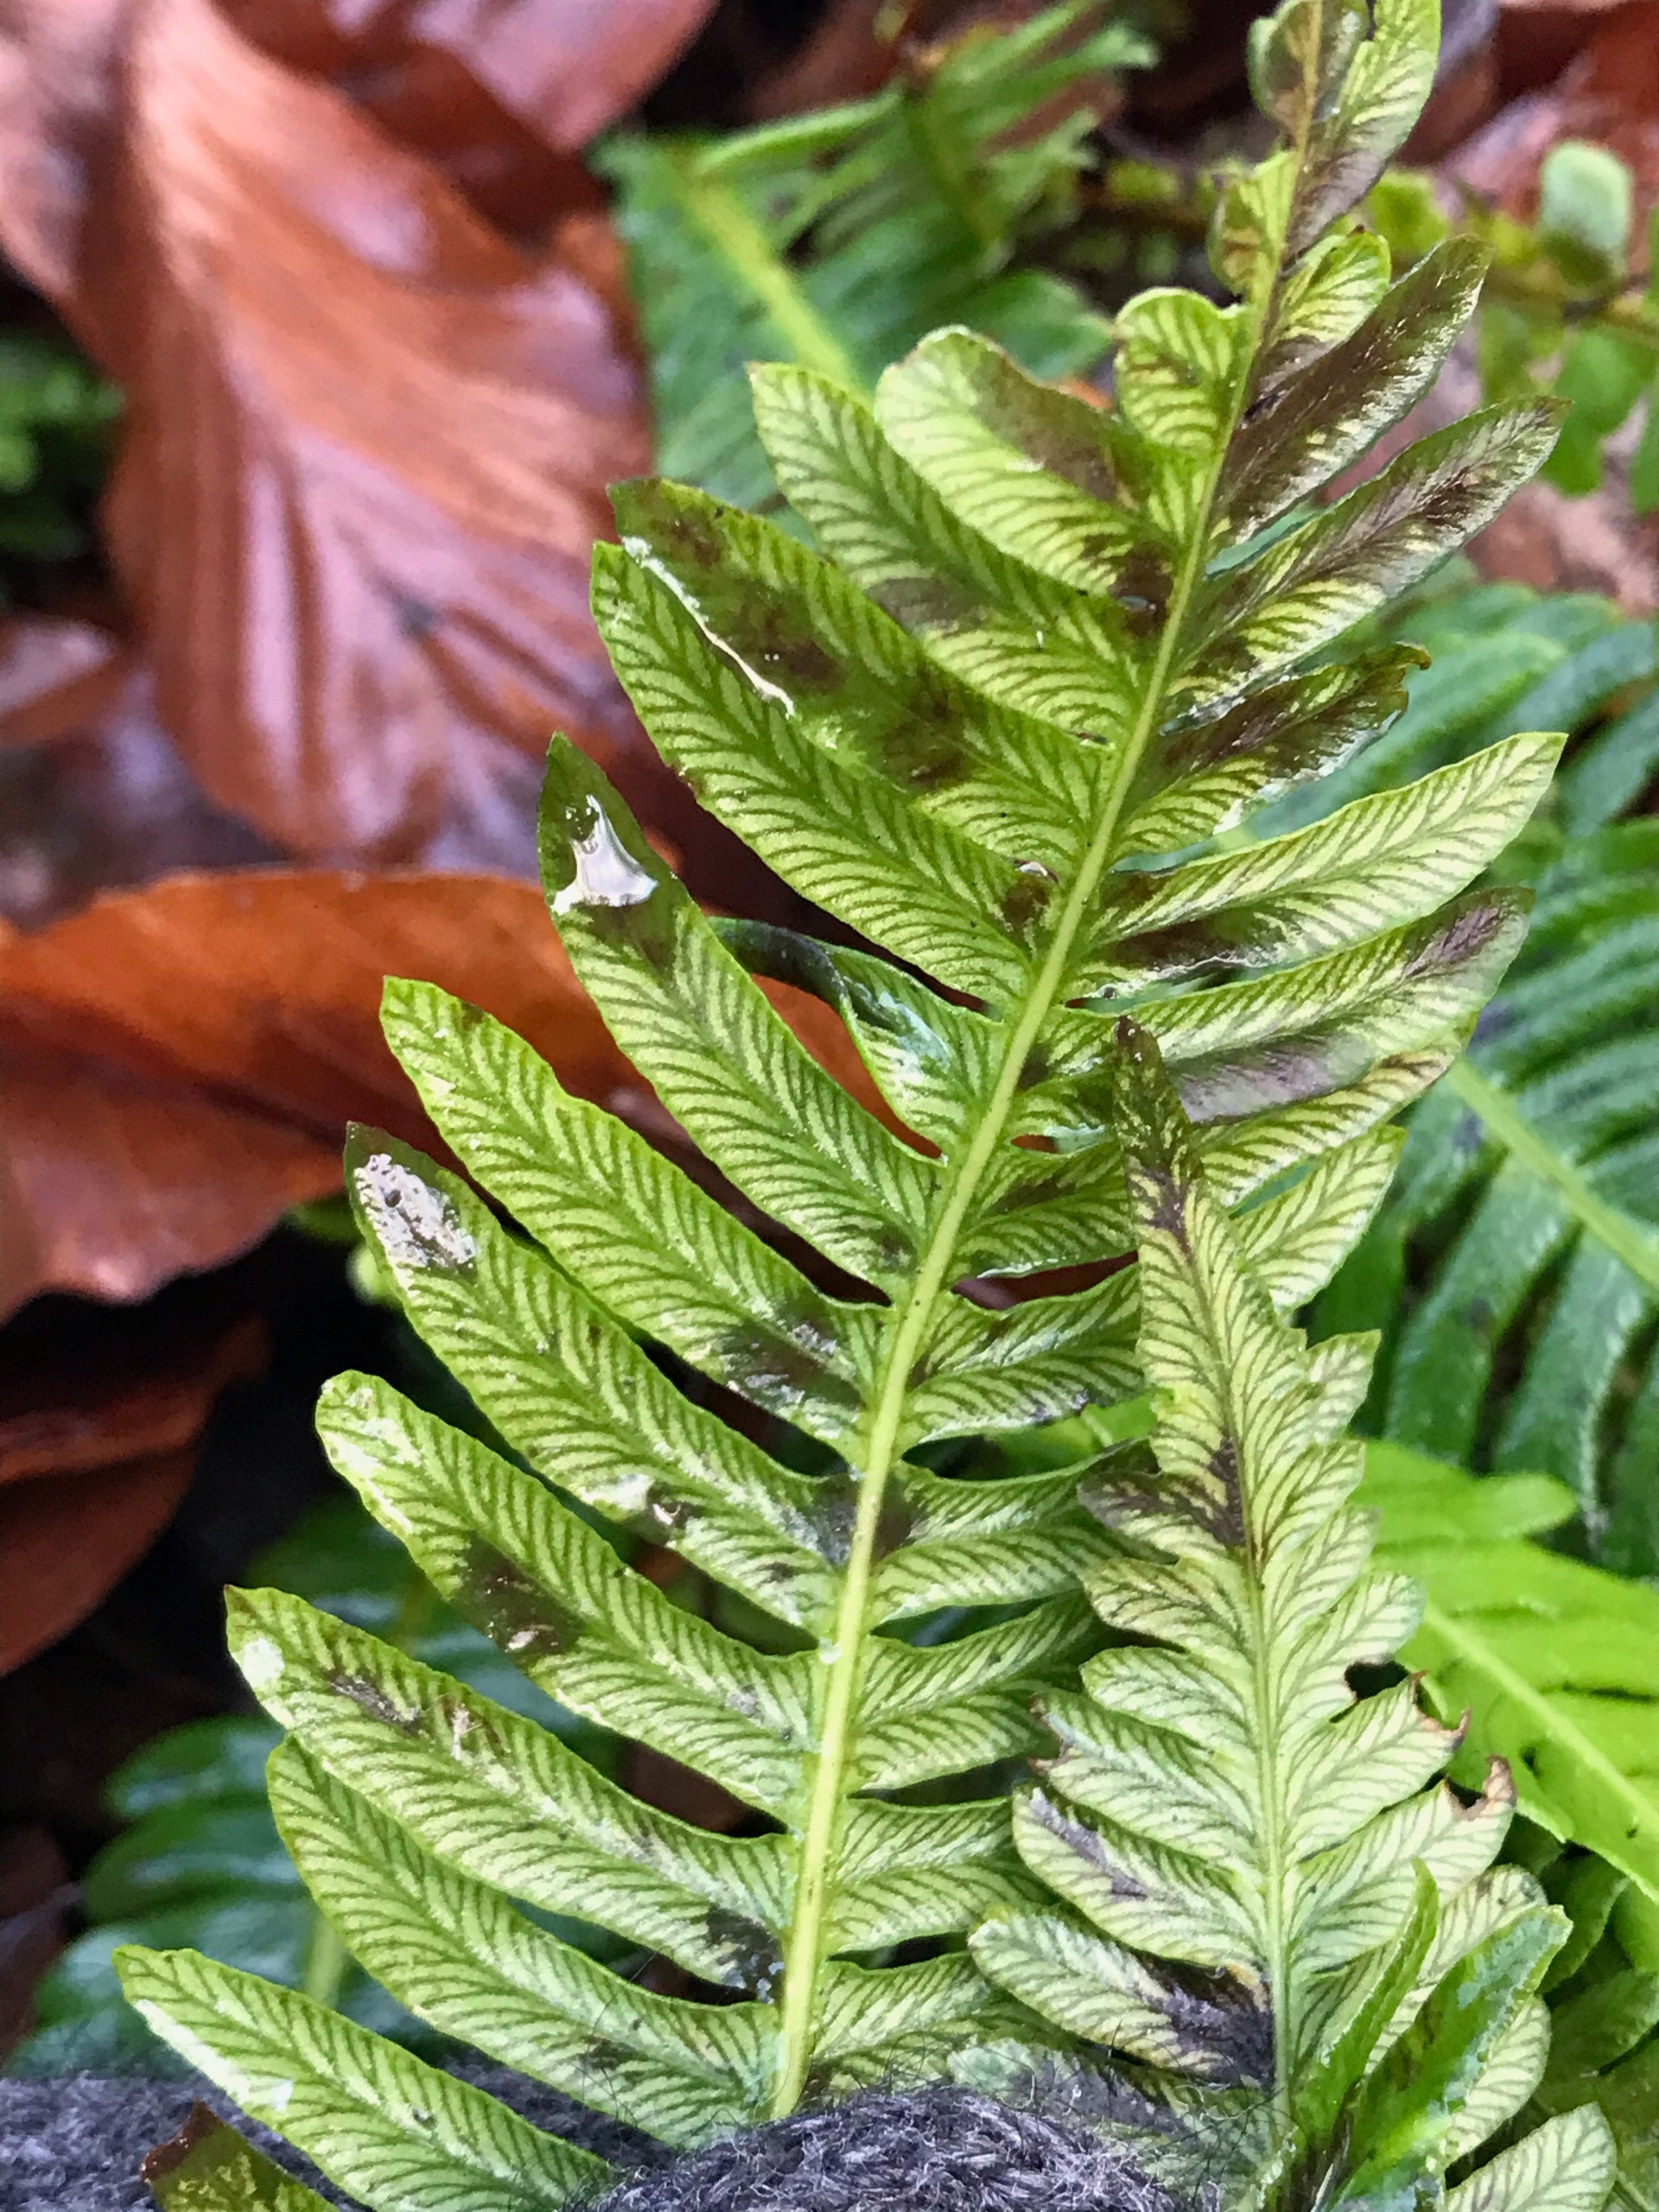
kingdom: Plantae
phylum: Tracheophyta
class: Polypodiopsida
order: Polypodiales
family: Blechnaceae
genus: Struthiopteris
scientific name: Struthiopteris spicant
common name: Kambregne
